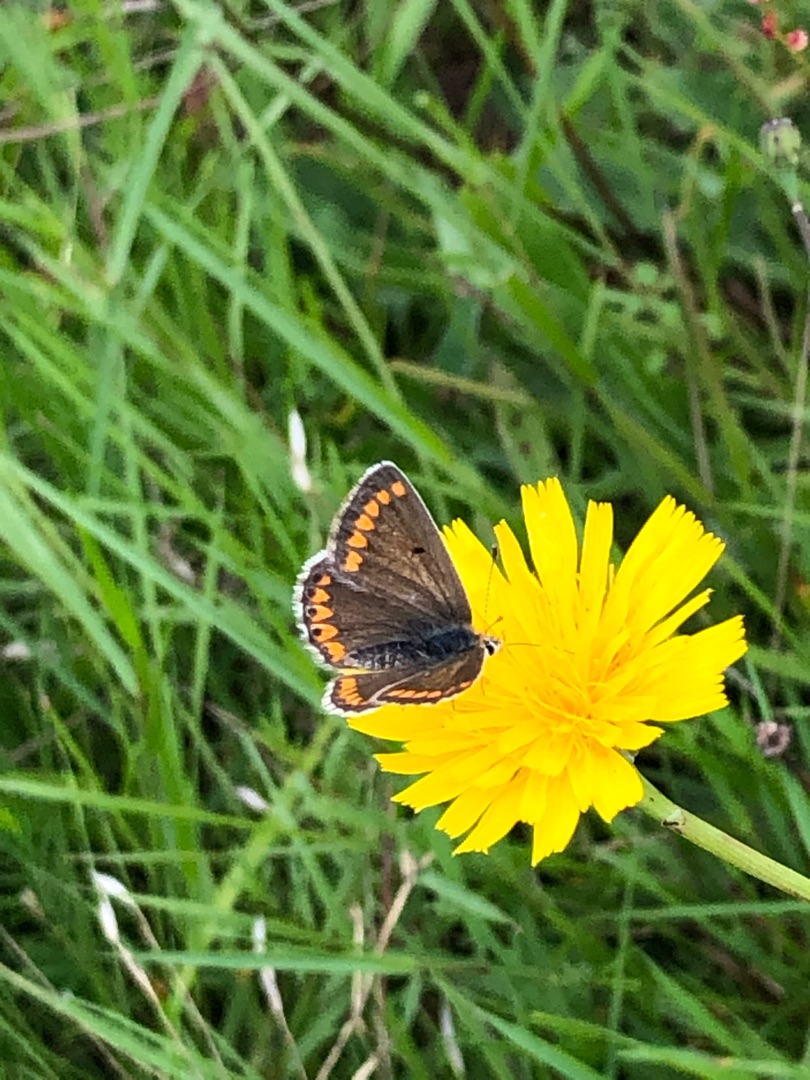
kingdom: Animalia
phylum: Arthropoda
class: Insecta
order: Lepidoptera
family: Lycaenidae
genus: Aricia
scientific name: Aricia agestis
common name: Rødplettet blåfugl
